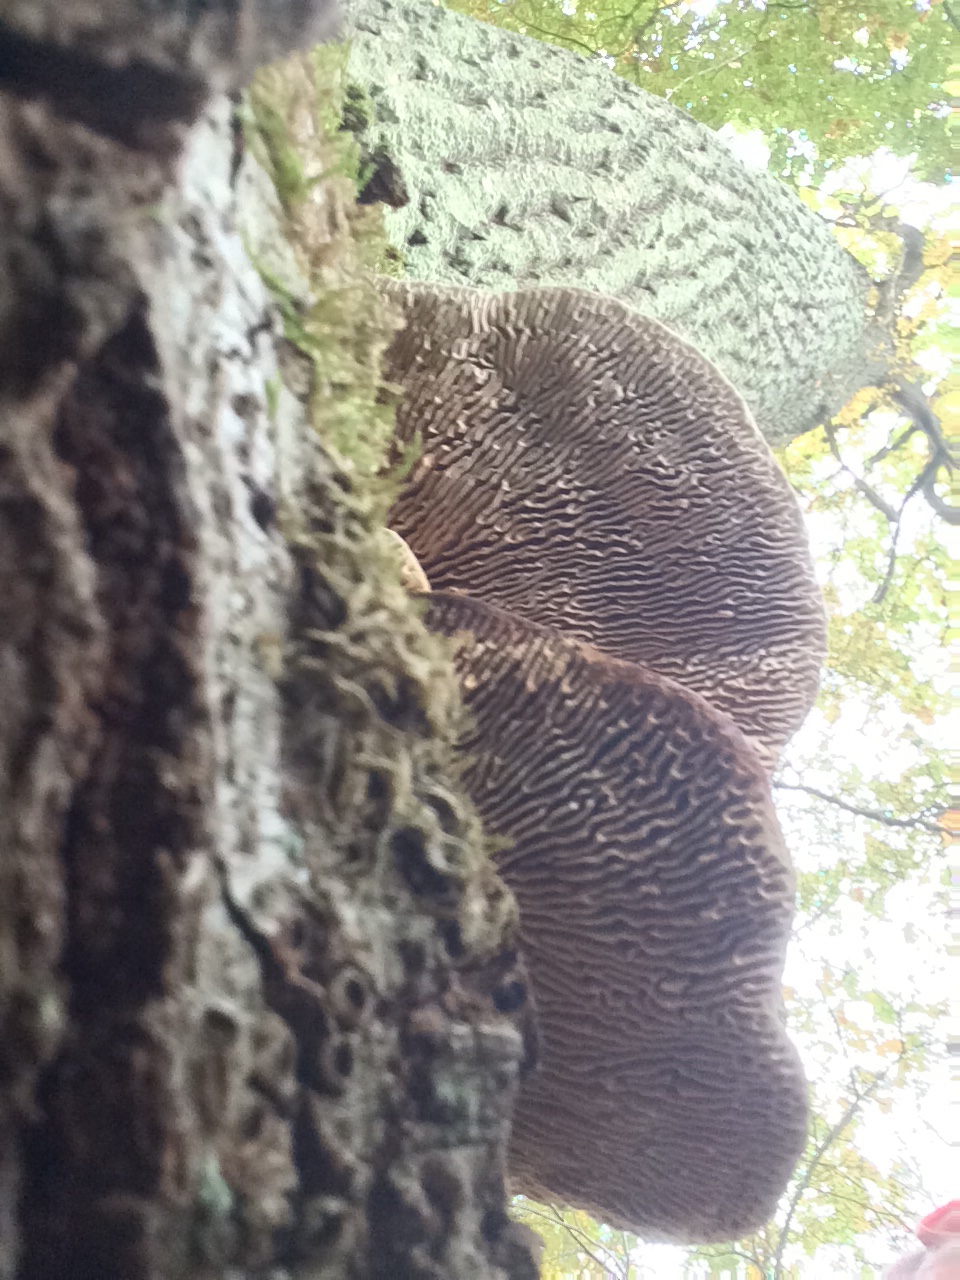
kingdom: Fungi
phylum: Basidiomycota
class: Agaricomycetes
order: Polyporales
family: Fomitopsidaceae
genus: Daedalea
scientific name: Daedalea quercina
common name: ege-labyrintsvamp
